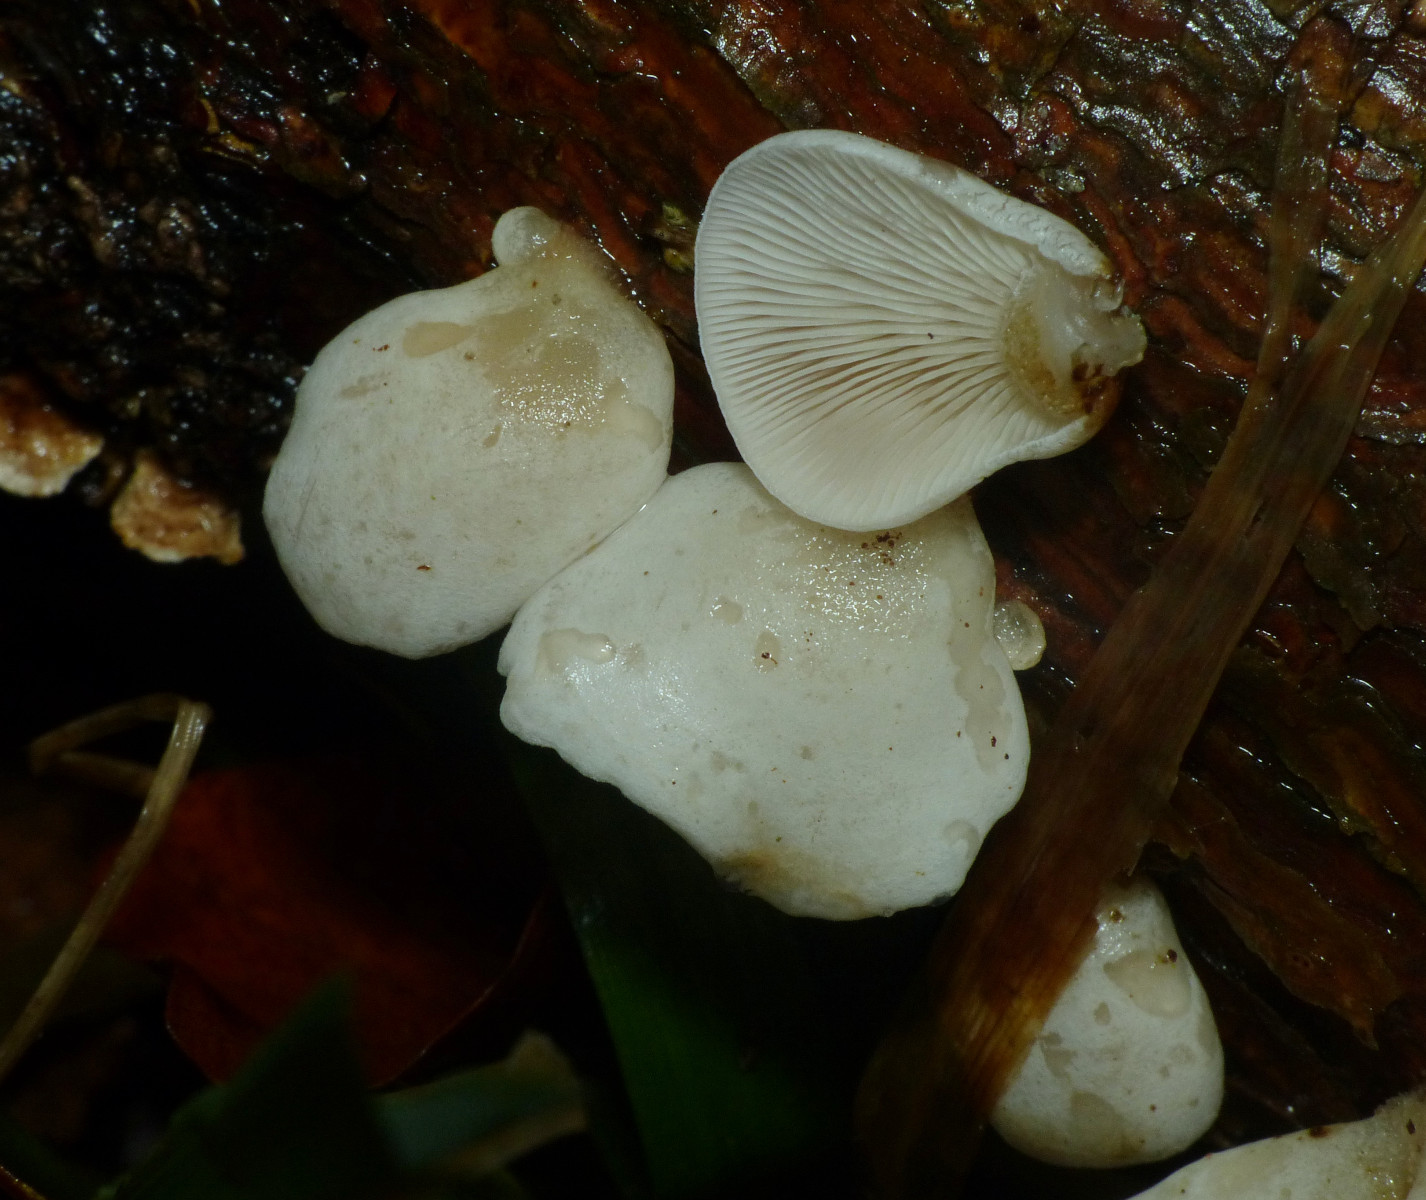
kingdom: Fungi
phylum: Basidiomycota
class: Agaricomycetes
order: Agaricales
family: Mycenaceae
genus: Panellus
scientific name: Panellus mitis
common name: mild epaulethat
